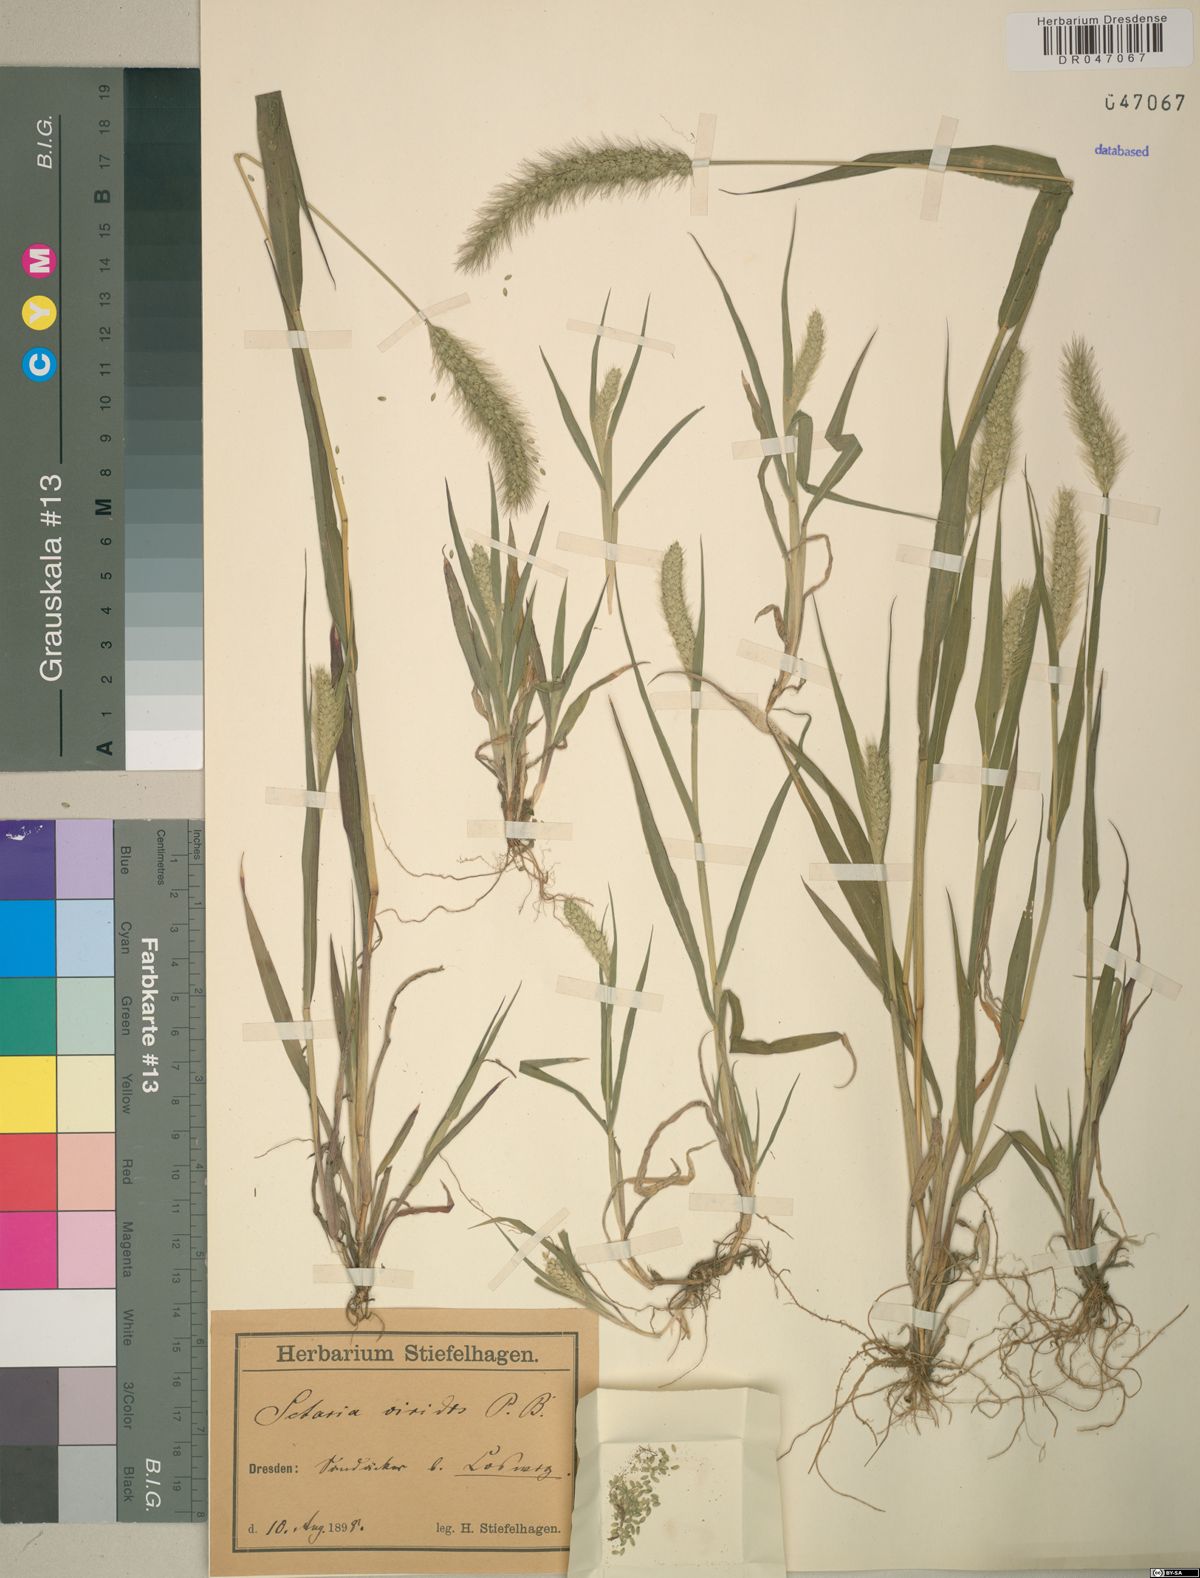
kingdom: Plantae
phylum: Tracheophyta
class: Liliopsida
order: Poales
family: Poaceae
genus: Setaria
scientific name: Setaria viridis
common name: Green bristlegrass
